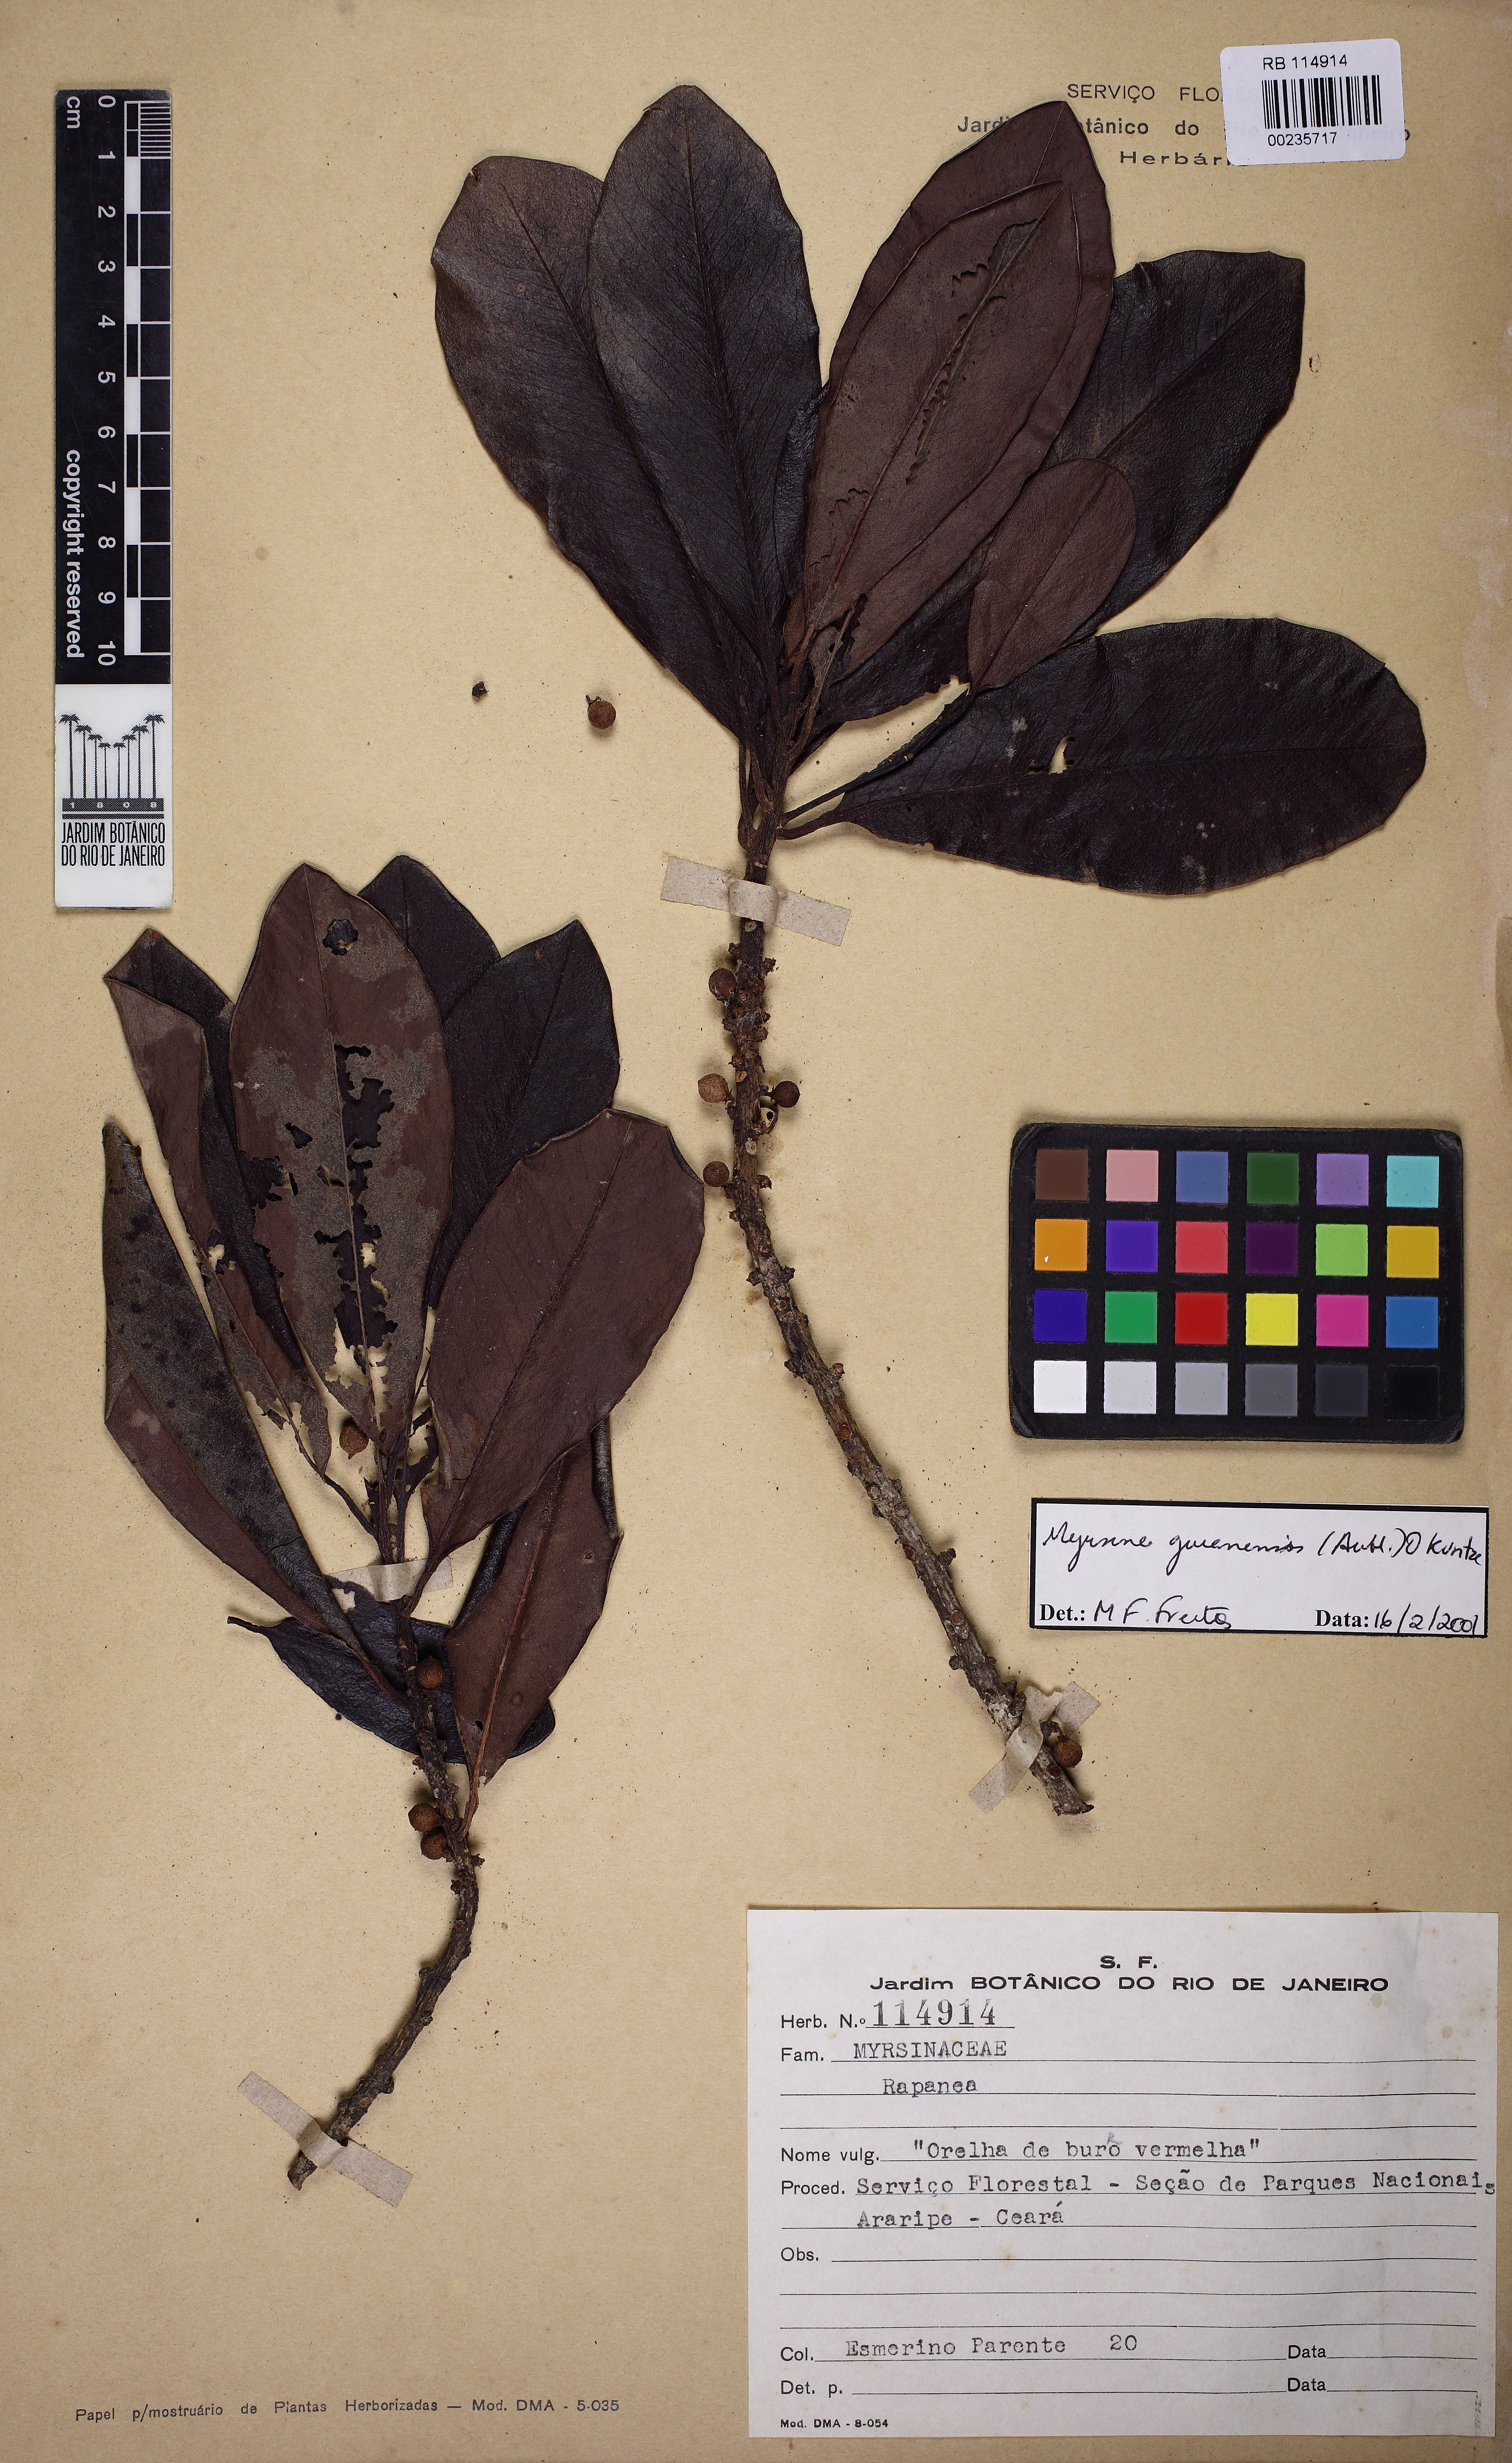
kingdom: Plantae
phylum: Tracheophyta
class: Magnoliopsida
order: Ericales
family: Primulaceae
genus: Myrsine
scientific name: Myrsine guianensis
